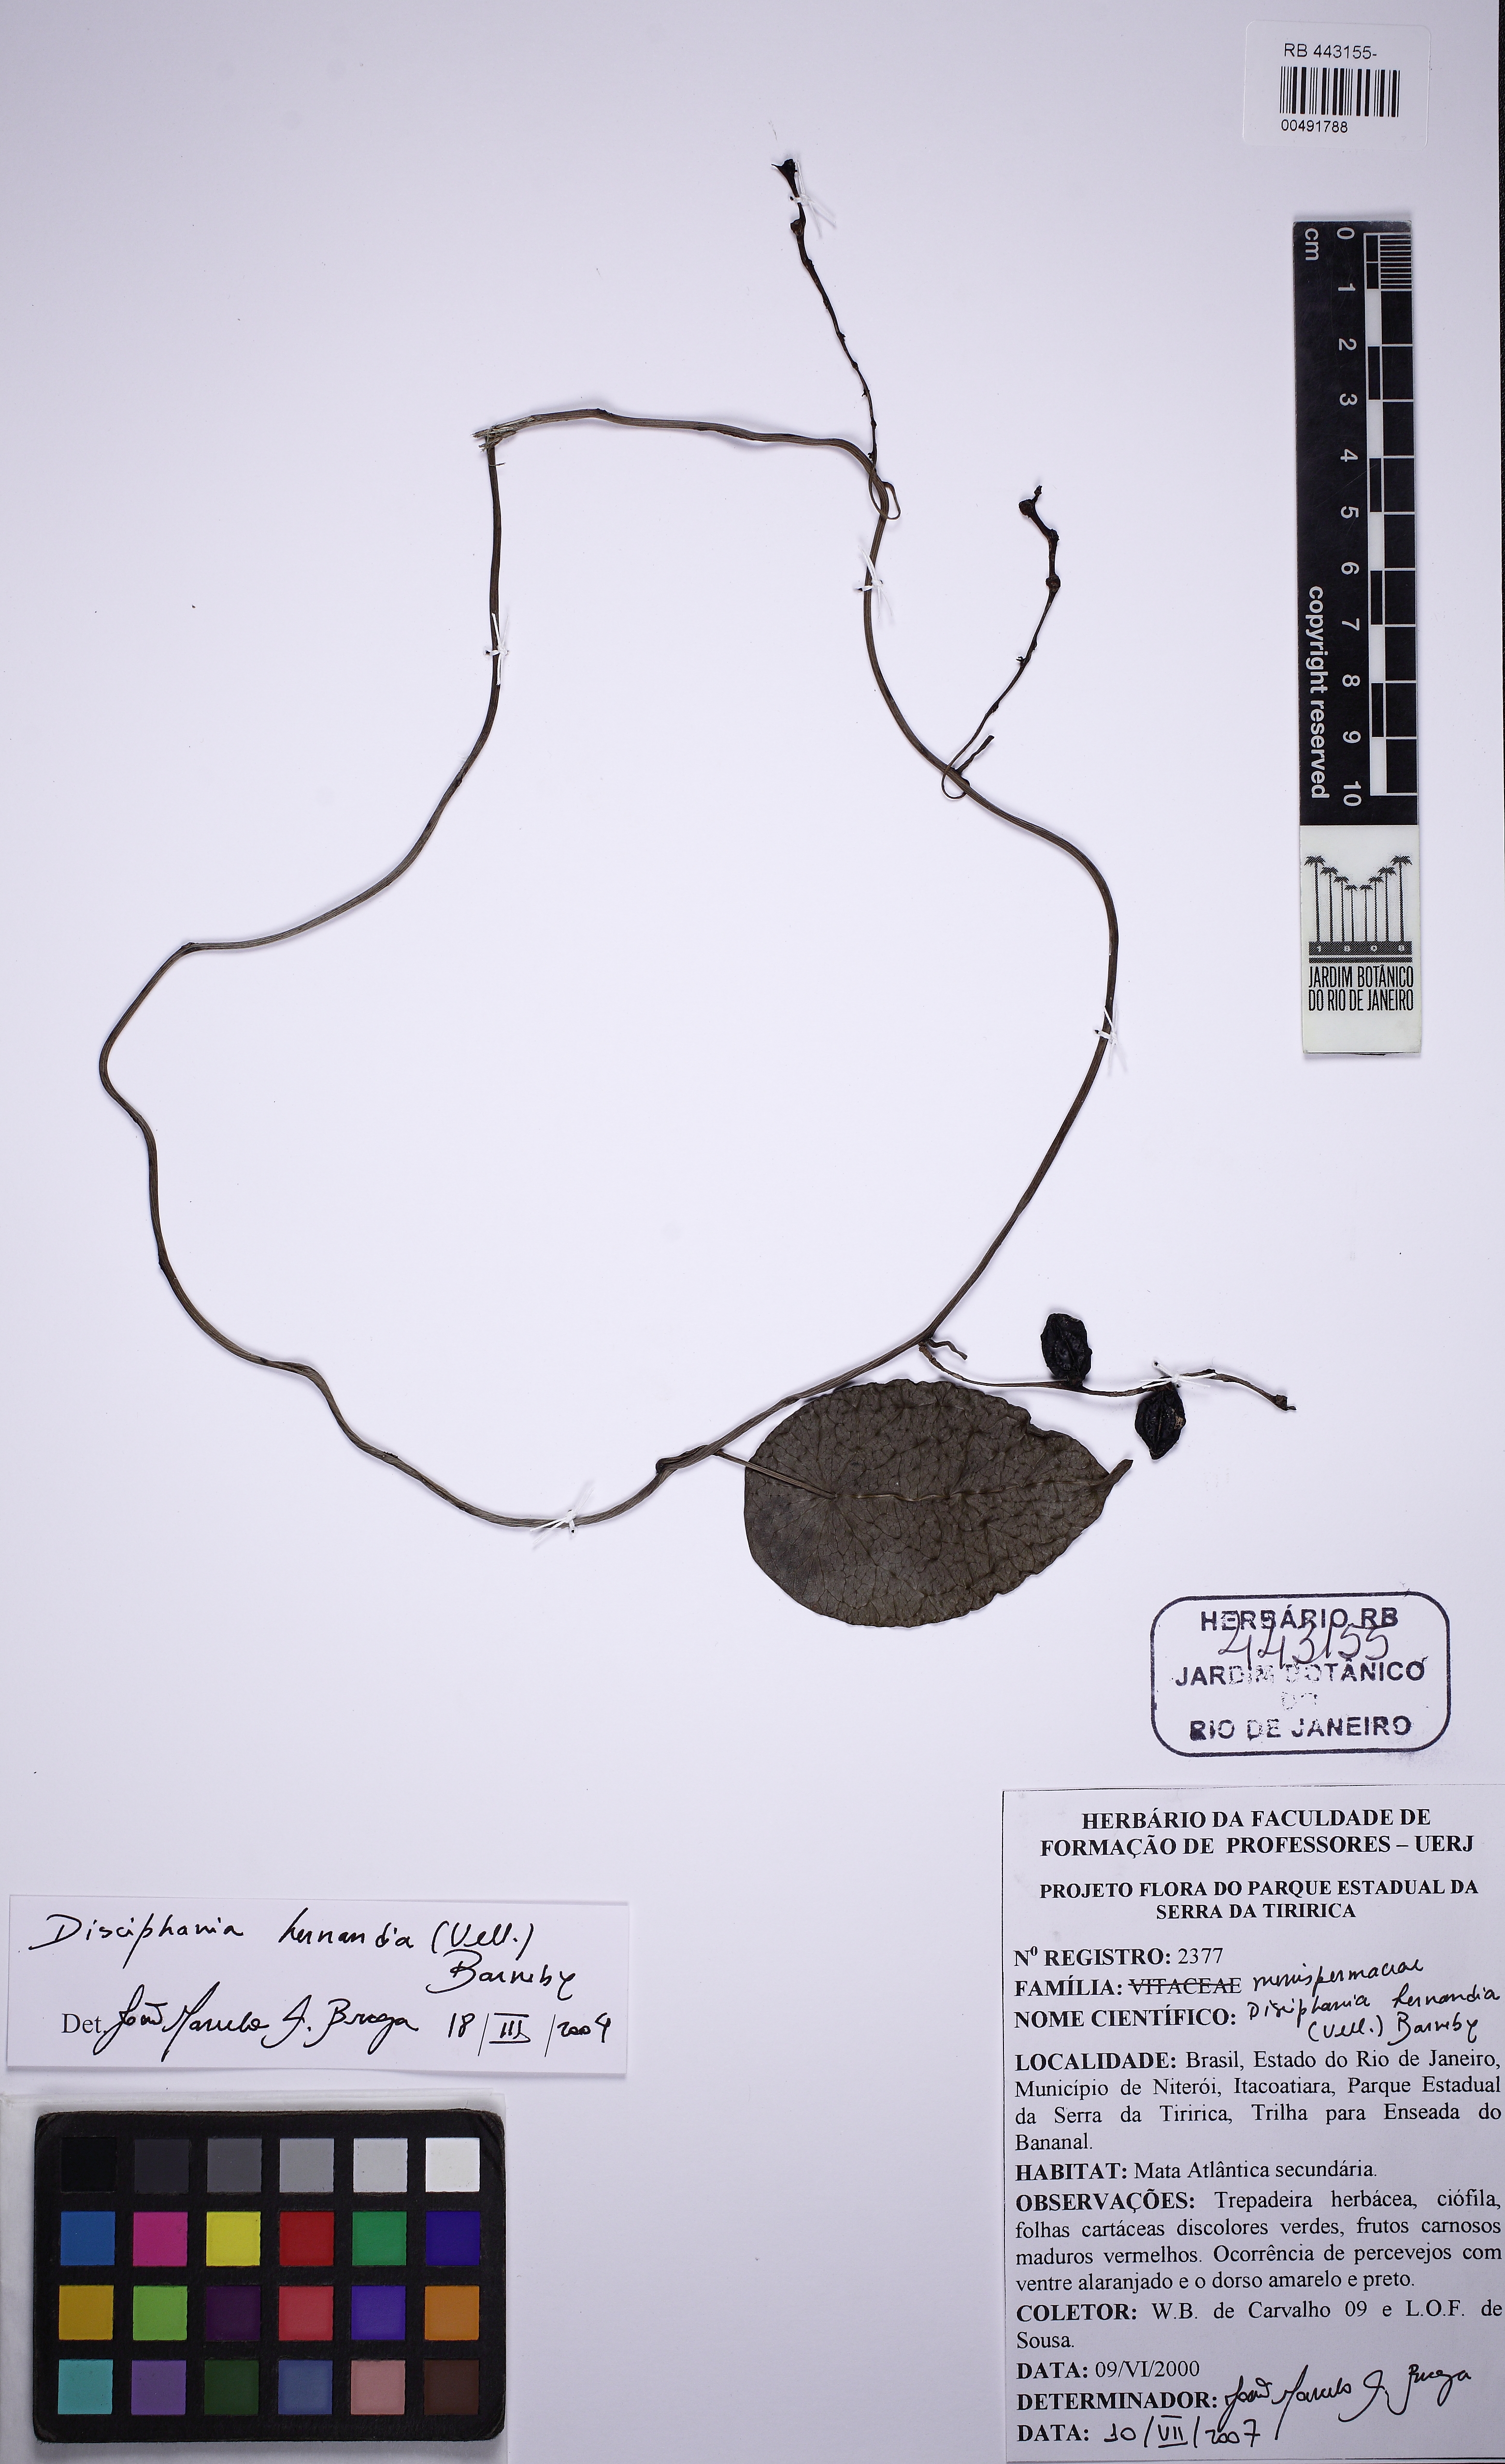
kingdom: Plantae
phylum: Tracheophyta
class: Magnoliopsida
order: Ranunculales
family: Menispermaceae
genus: Disciphania
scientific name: Disciphania hernandia
